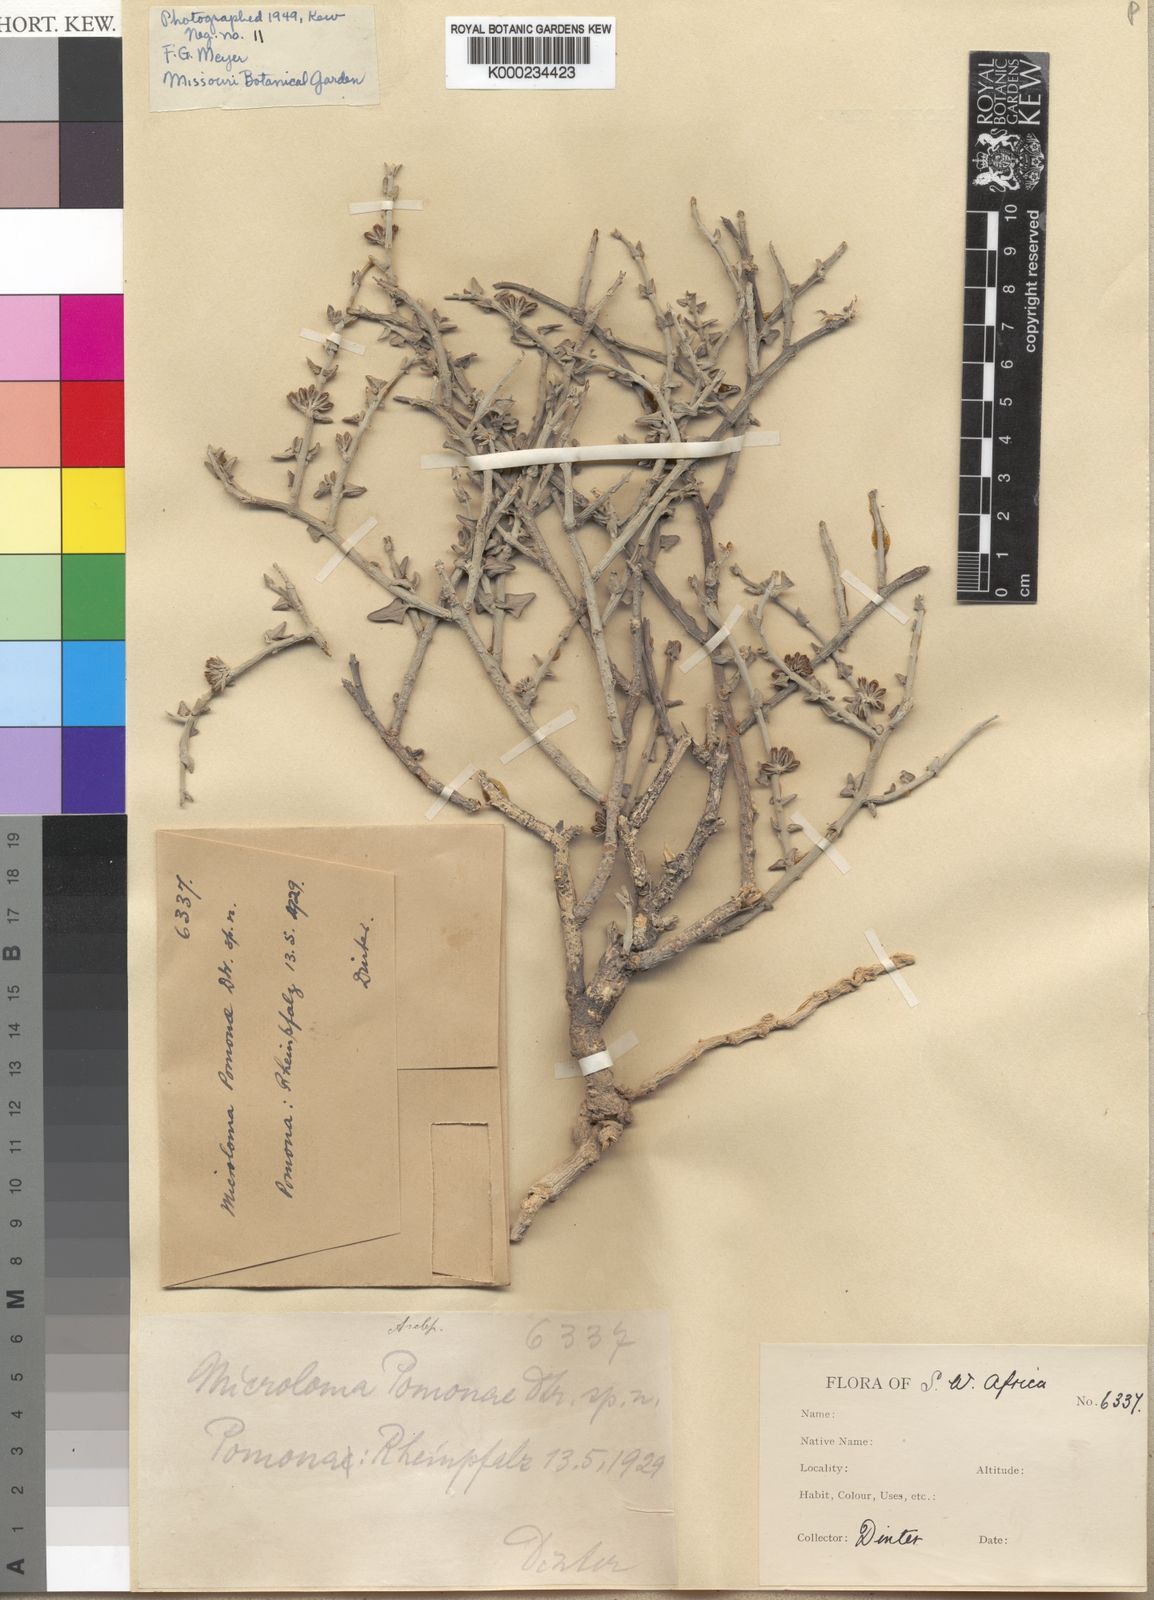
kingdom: Plantae
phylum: Tracheophyta
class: Magnoliopsida
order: Gentianales
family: Apocynaceae
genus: Microloma
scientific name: Microloma lanatum
